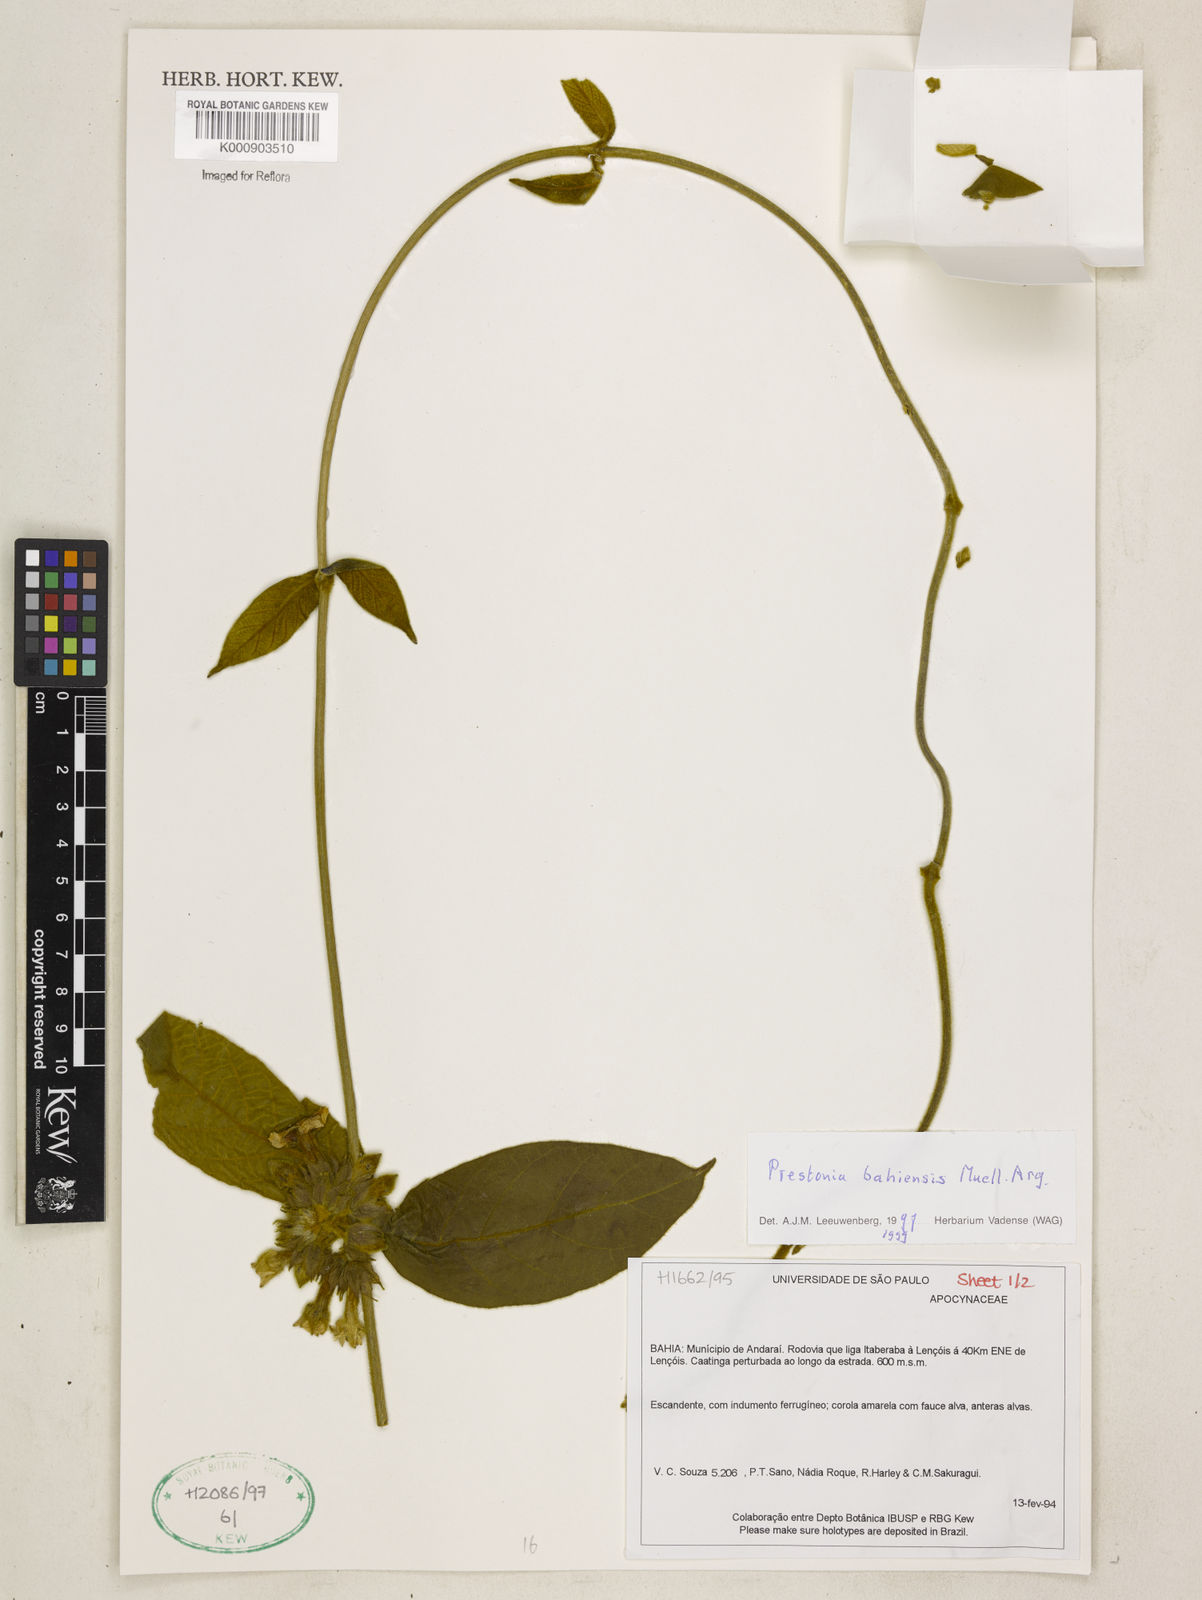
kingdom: Plantae
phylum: Tracheophyta
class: Magnoliopsida
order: Gentianales
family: Apocynaceae
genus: Prestonia
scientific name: Prestonia
